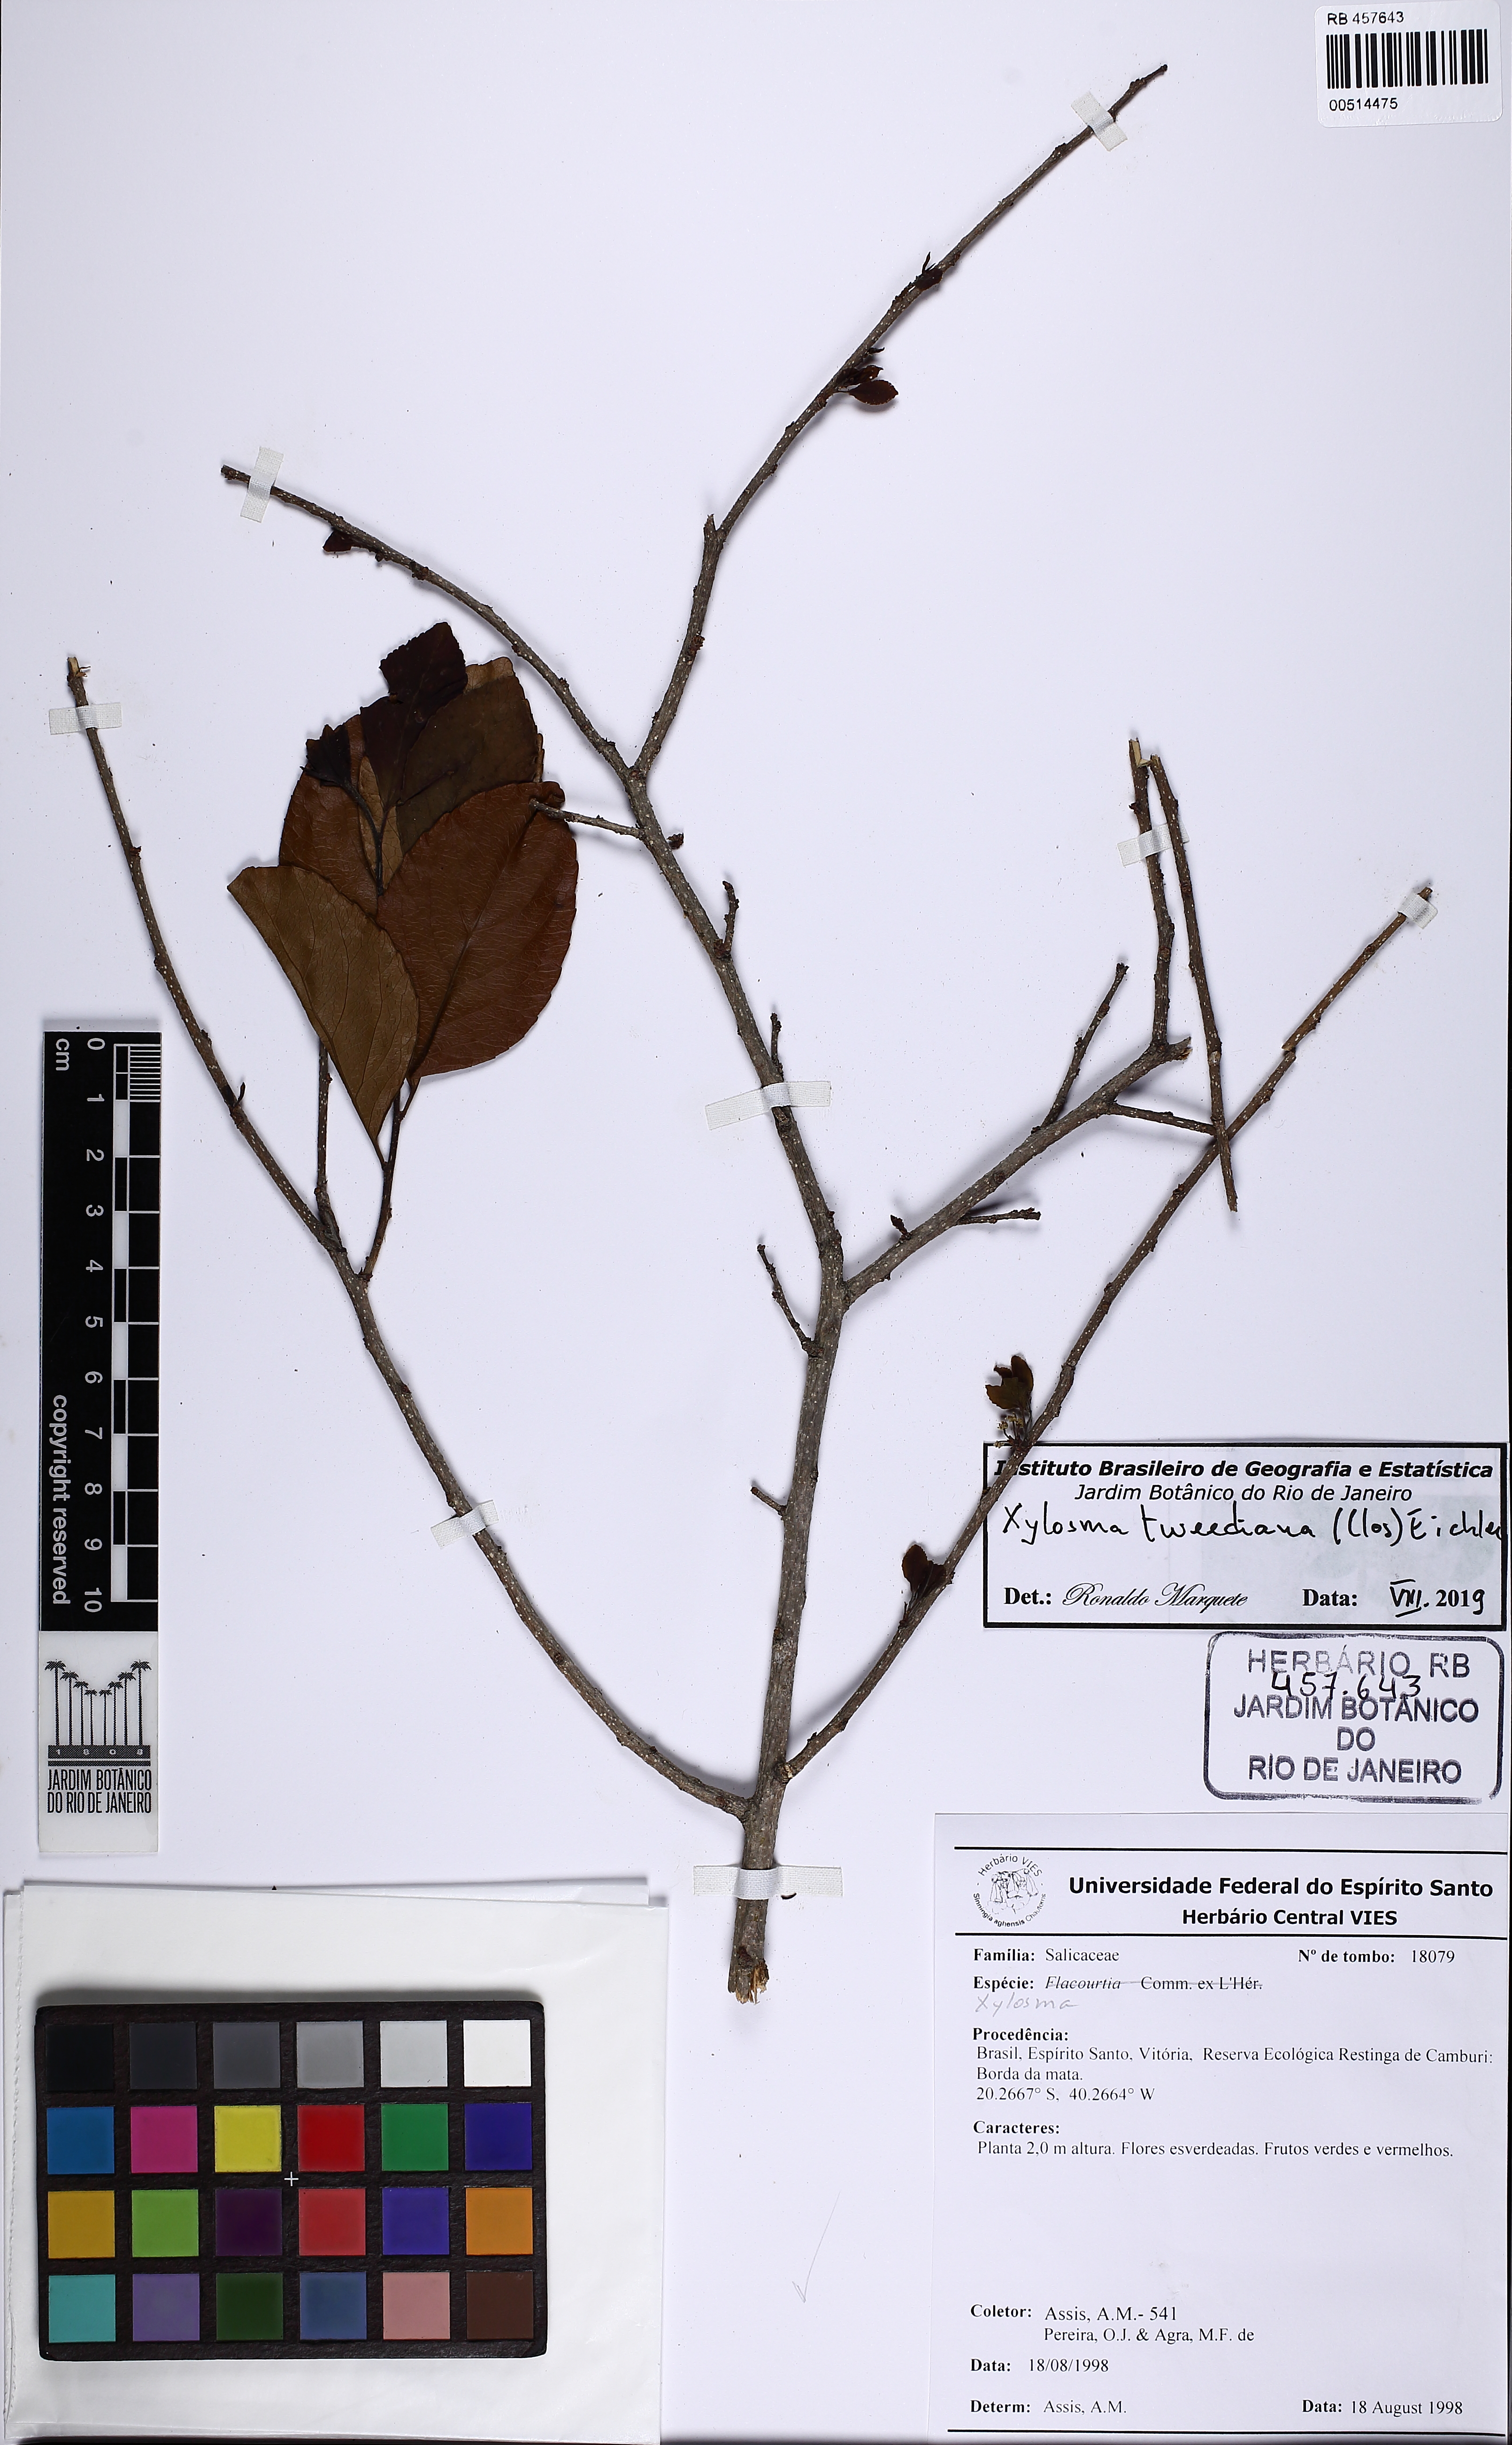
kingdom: Plantae
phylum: Tracheophyta
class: Magnoliopsida
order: Malpighiales
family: Salicaceae
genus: Xylosma
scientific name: Xylosma tweediana
